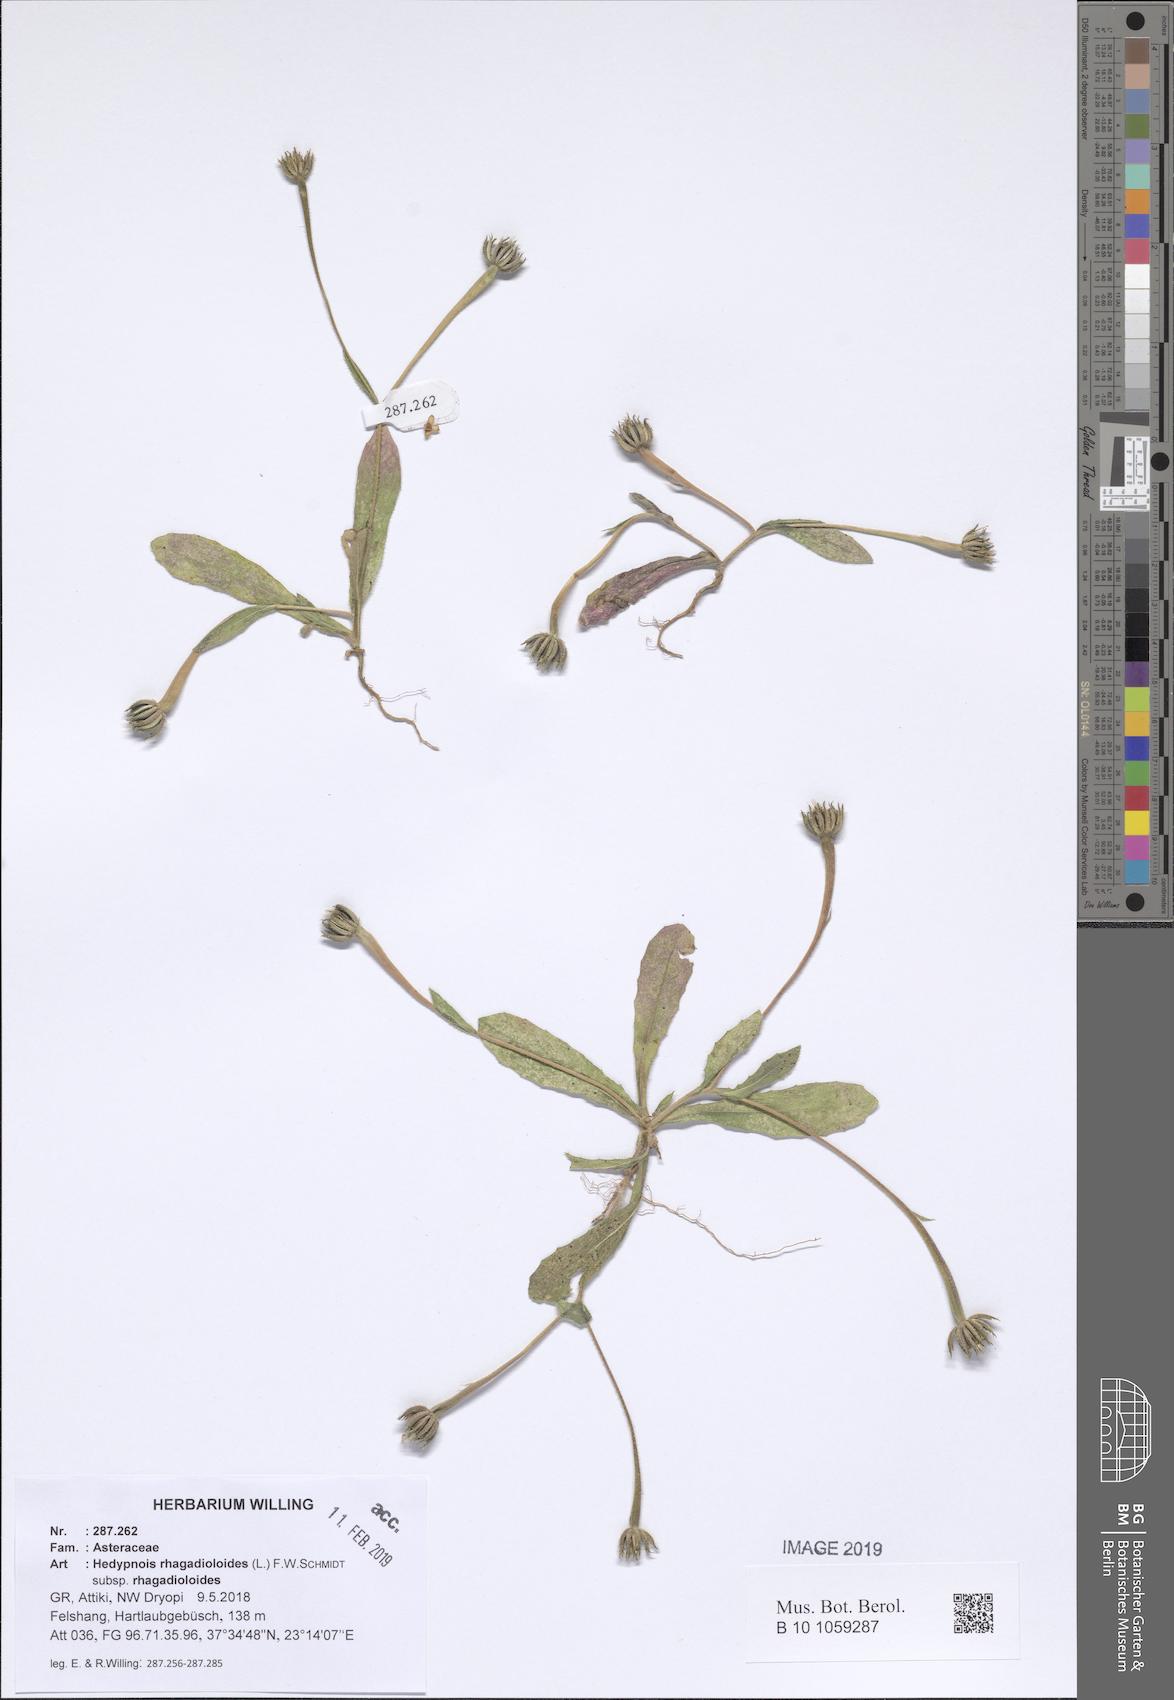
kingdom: Plantae
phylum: Tracheophyta
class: Magnoliopsida
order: Asterales
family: Asteraceae
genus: Hedypnois
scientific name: Hedypnois rhagadioloides
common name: Cretan weed
